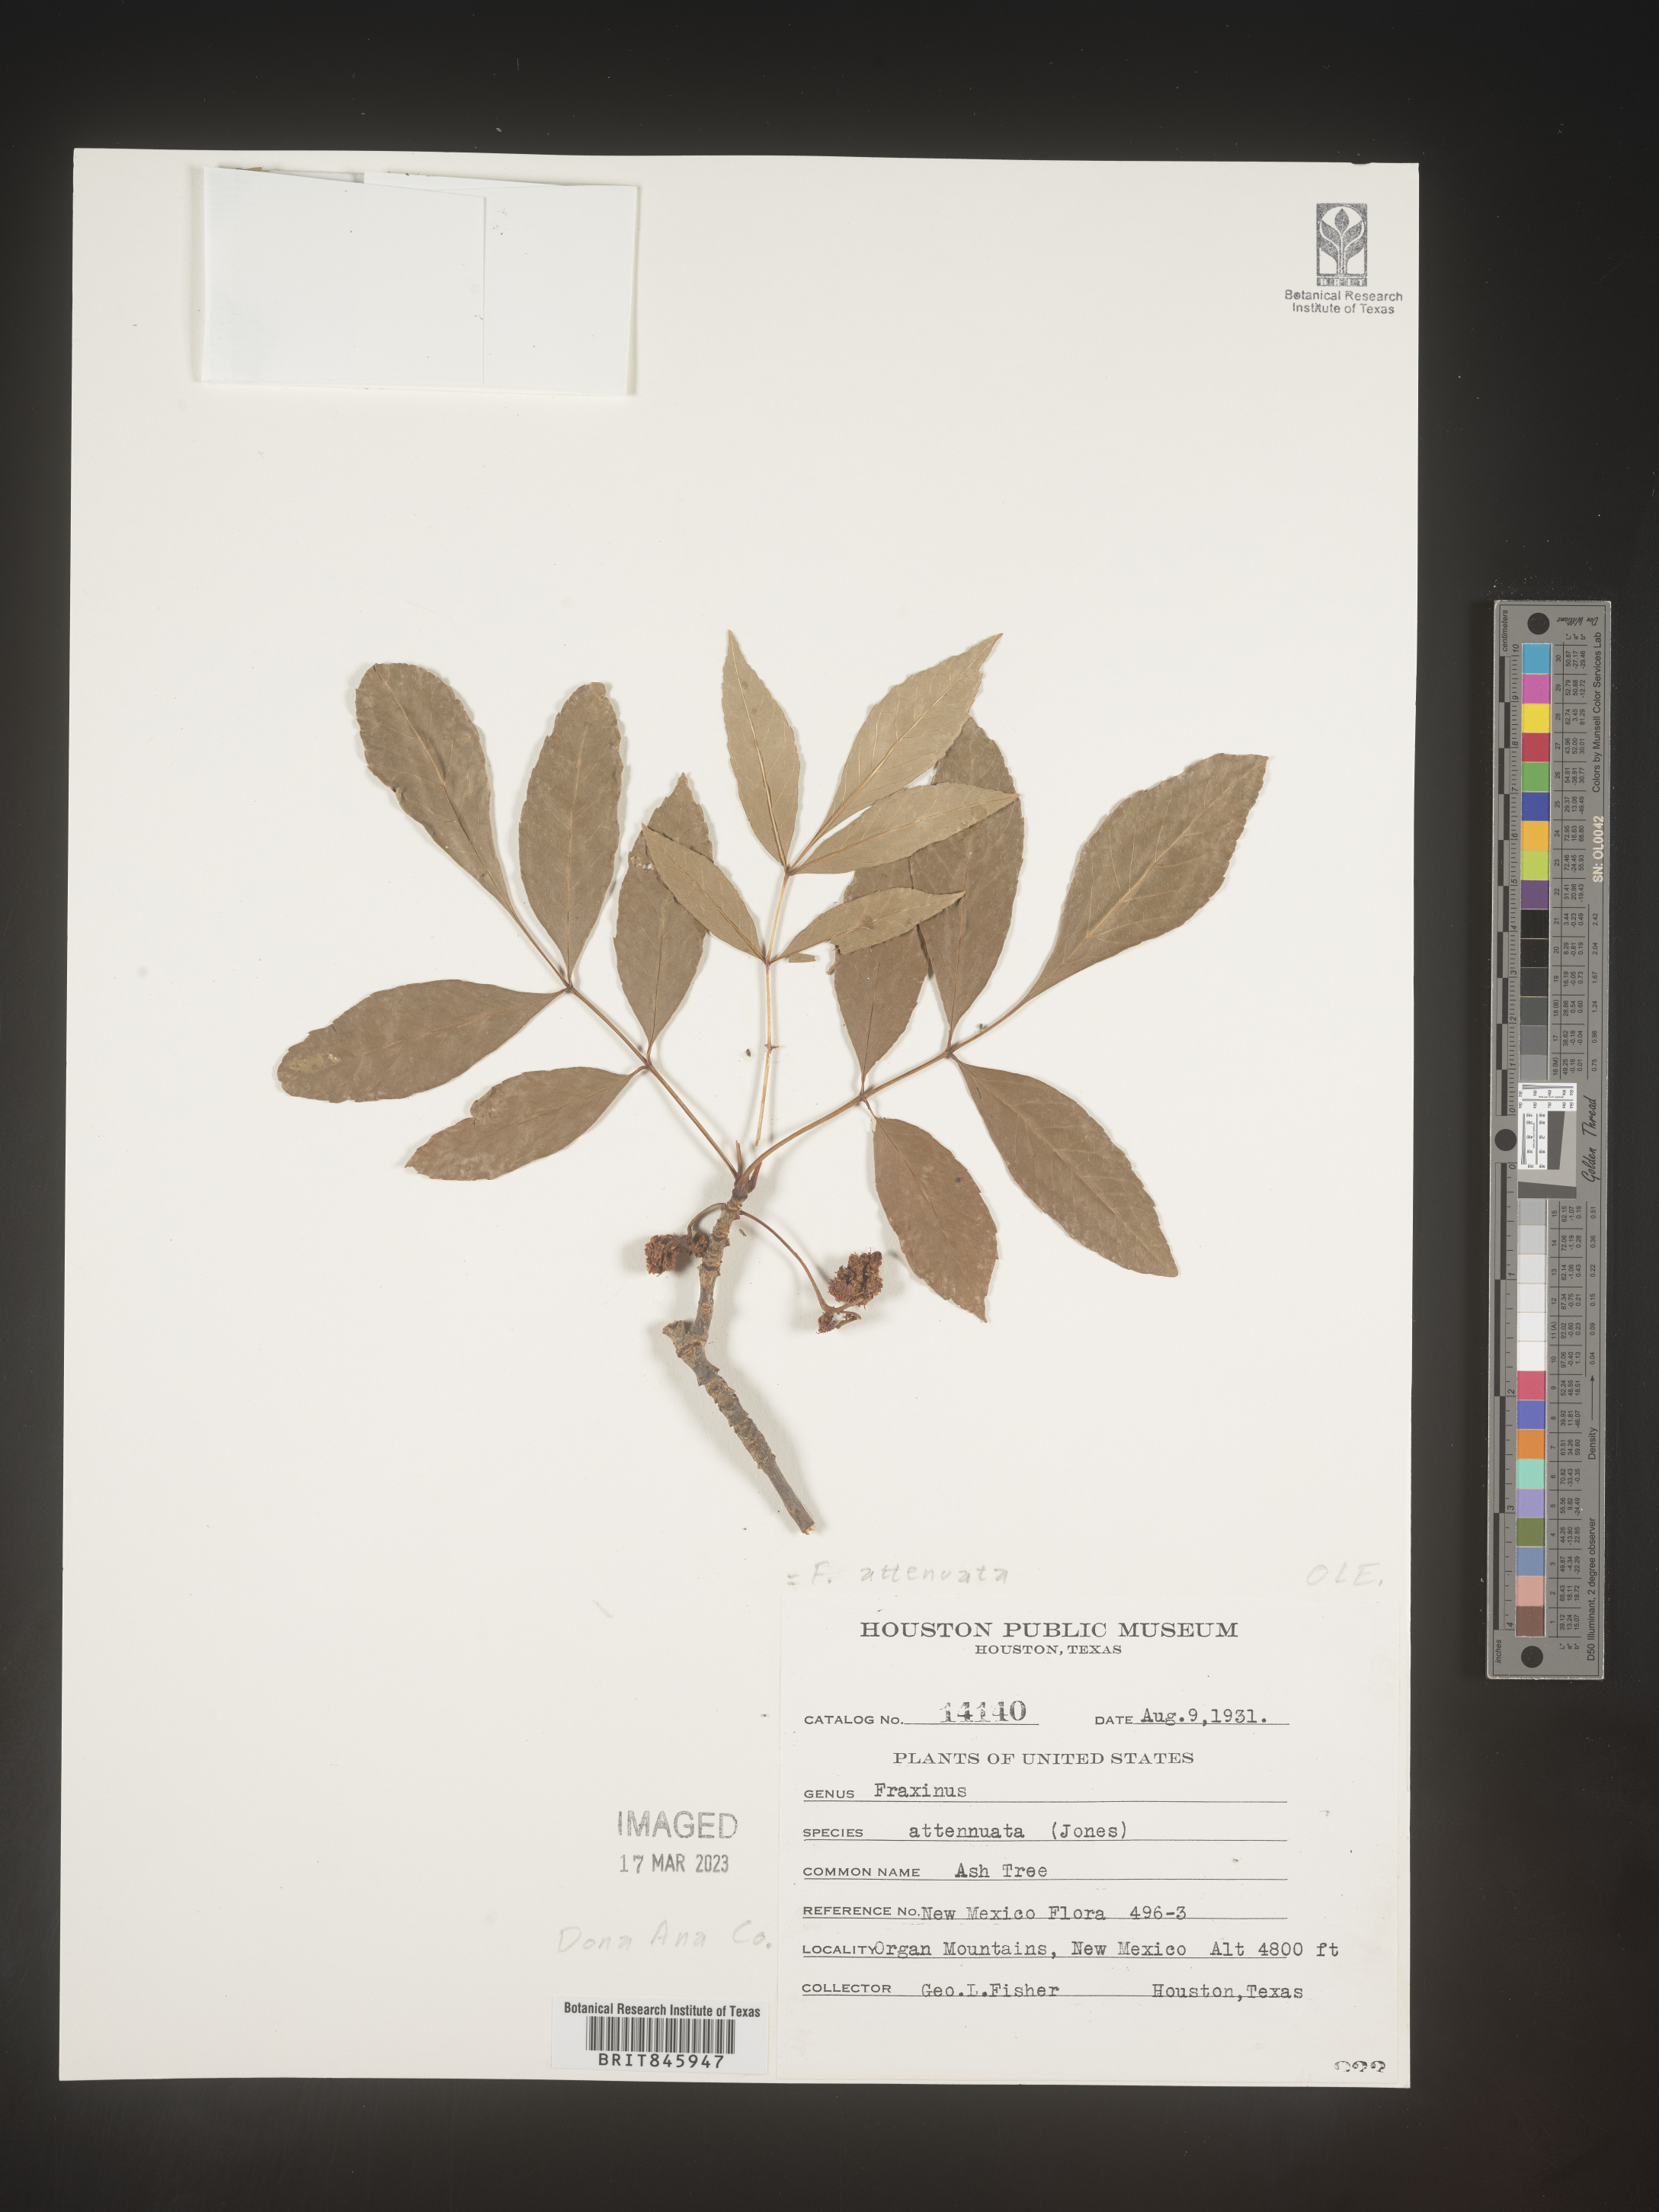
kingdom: Plantae
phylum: Tracheophyta
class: Magnoliopsida
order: Lamiales
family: Oleaceae
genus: Fraxinus
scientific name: Fraxinus velutina
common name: Arizon ash
